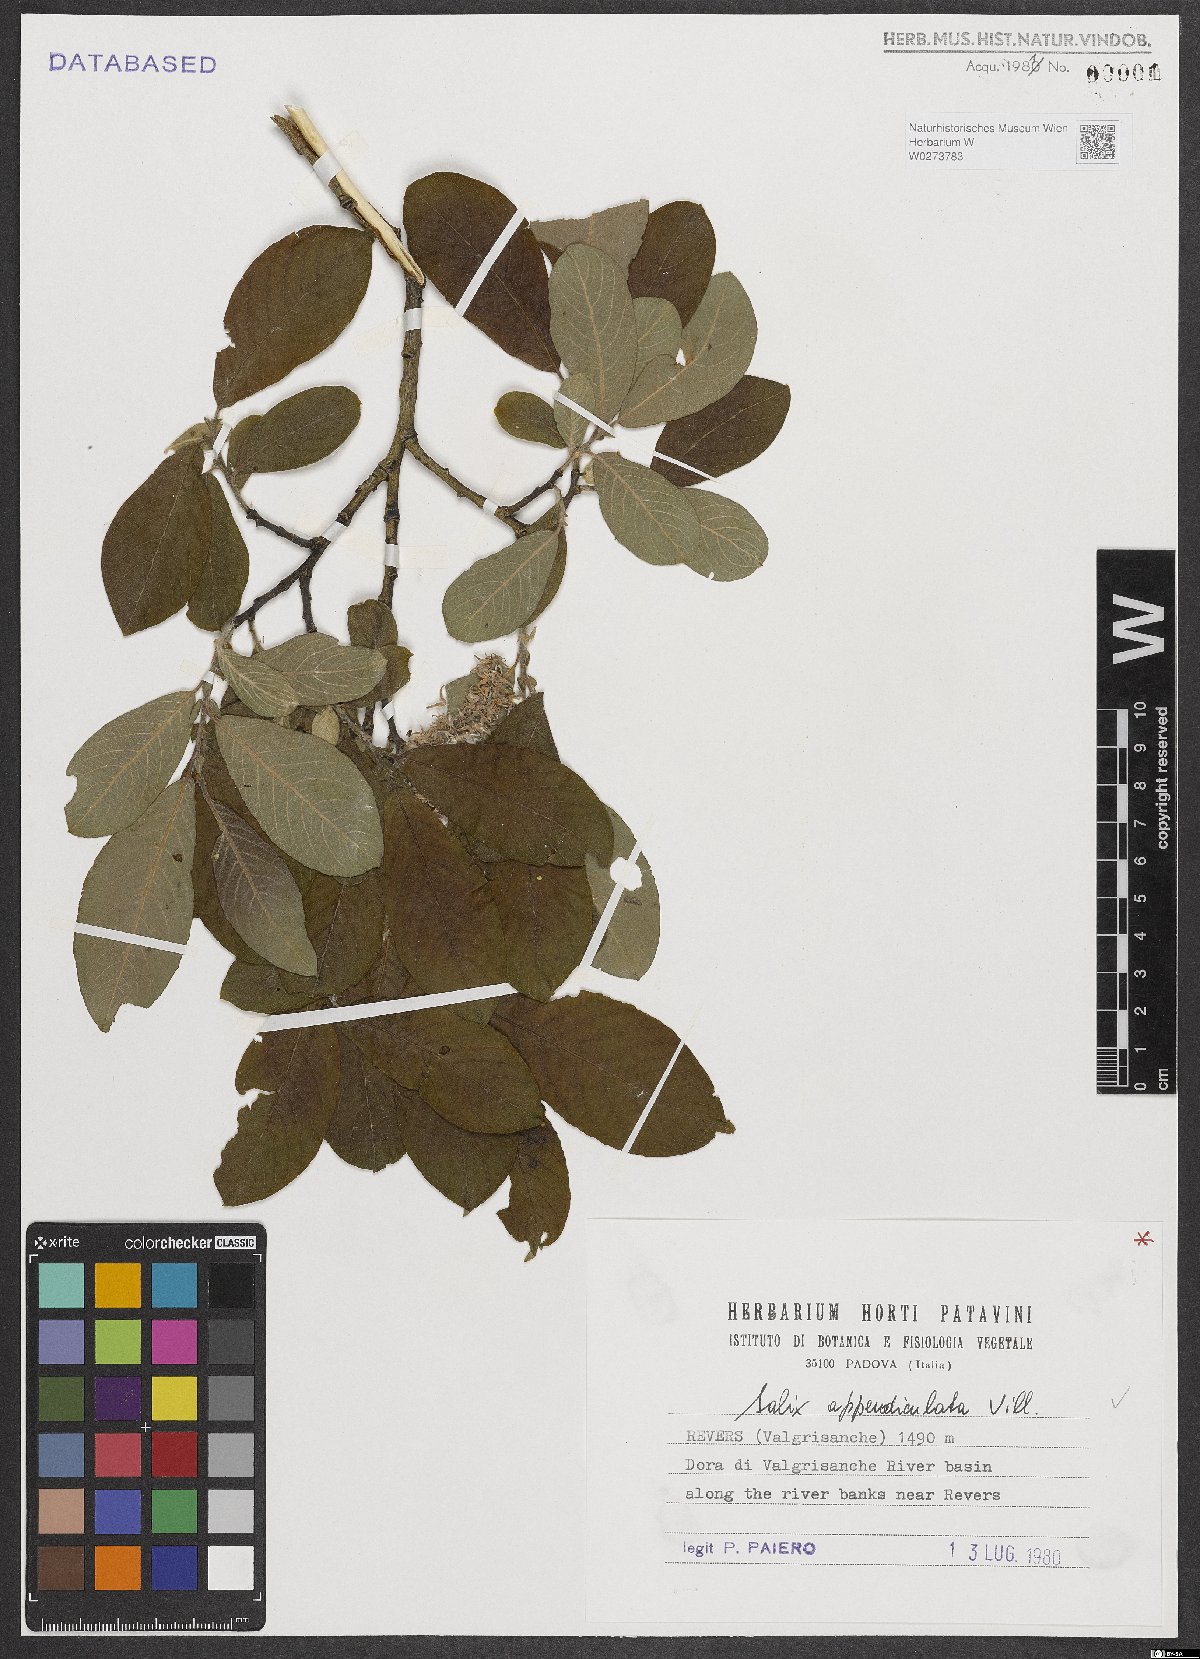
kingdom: Plantae
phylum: Tracheophyta
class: Magnoliopsida
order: Malpighiales
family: Salicaceae
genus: Salix
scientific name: Salix appendiculata
